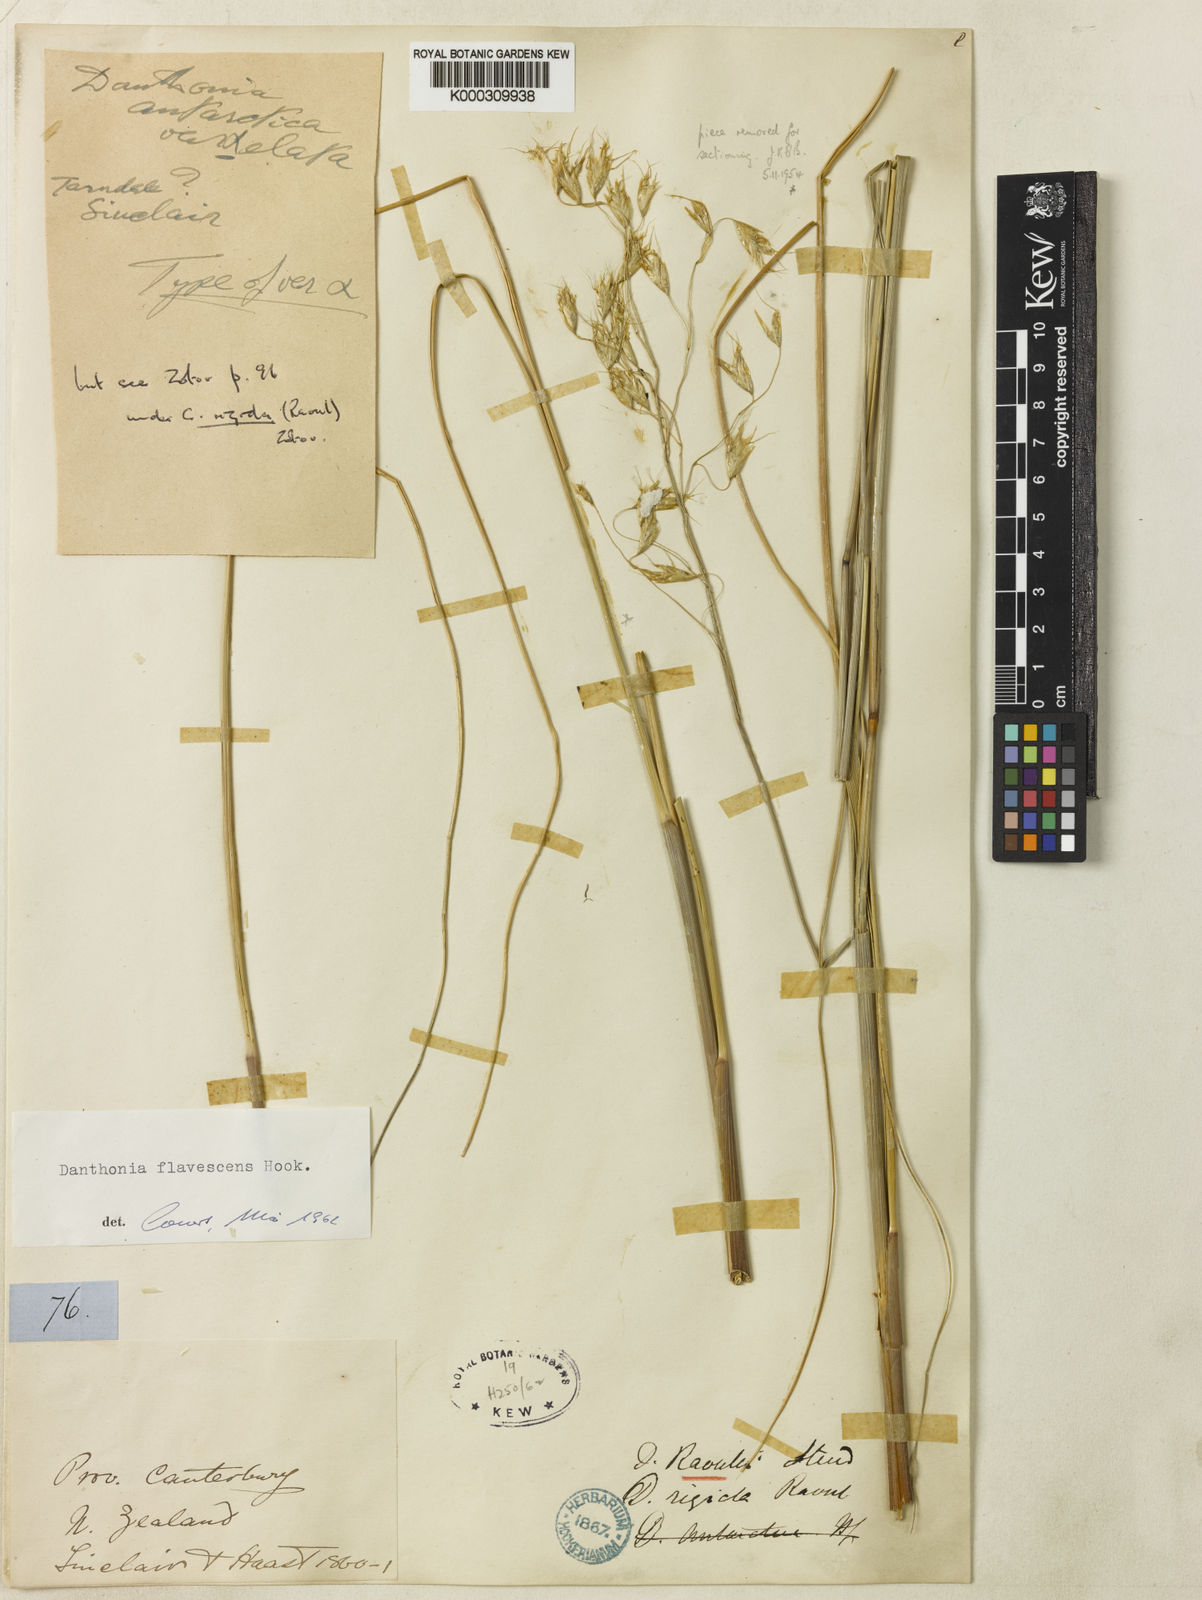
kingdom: Plantae
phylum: Tracheophyta
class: Liliopsida
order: Poales
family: Poaceae
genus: Chionochloa
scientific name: Chionochloa rigida
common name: Narrow leaved snow tussock
